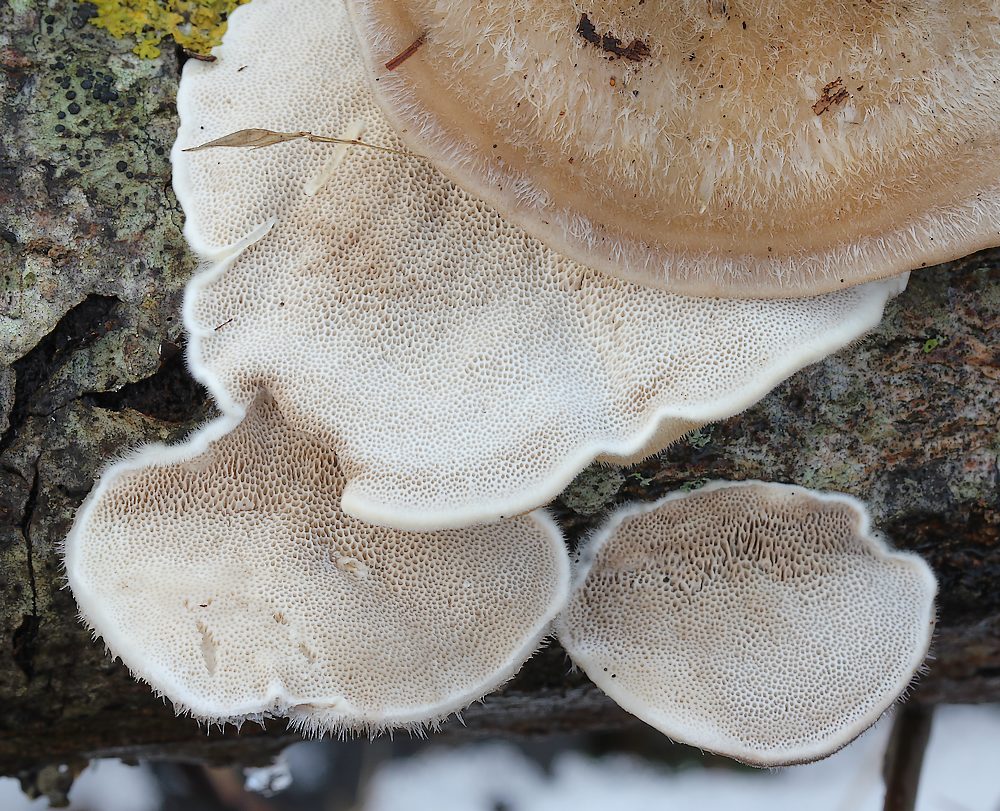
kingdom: Fungi
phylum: Basidiomycota
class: Agaricomycetes
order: Polyporales
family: Polyporaceae
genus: Trametes
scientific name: Trametes hirsuta
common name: håret læderporesvamp
